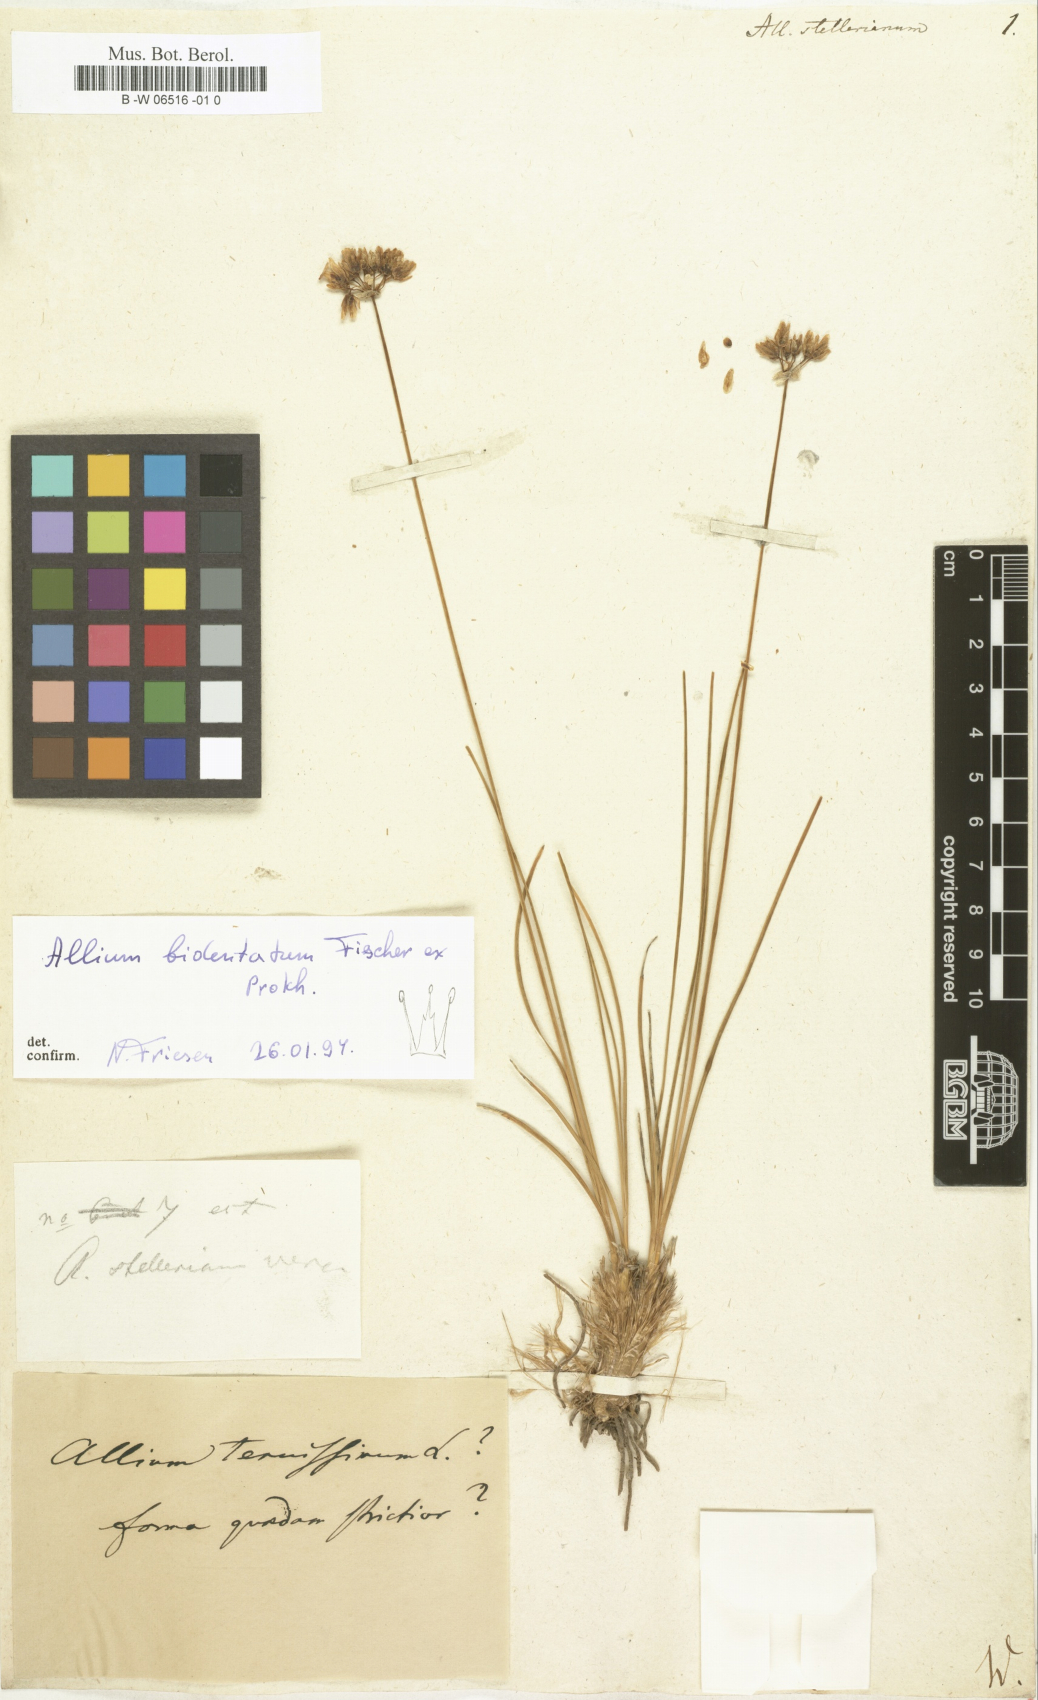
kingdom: Plantae
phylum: Tracheophyta
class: Liliopsida
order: Asparagales
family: Amaryllidaceae
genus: Allium
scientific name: Allium stellerianum
